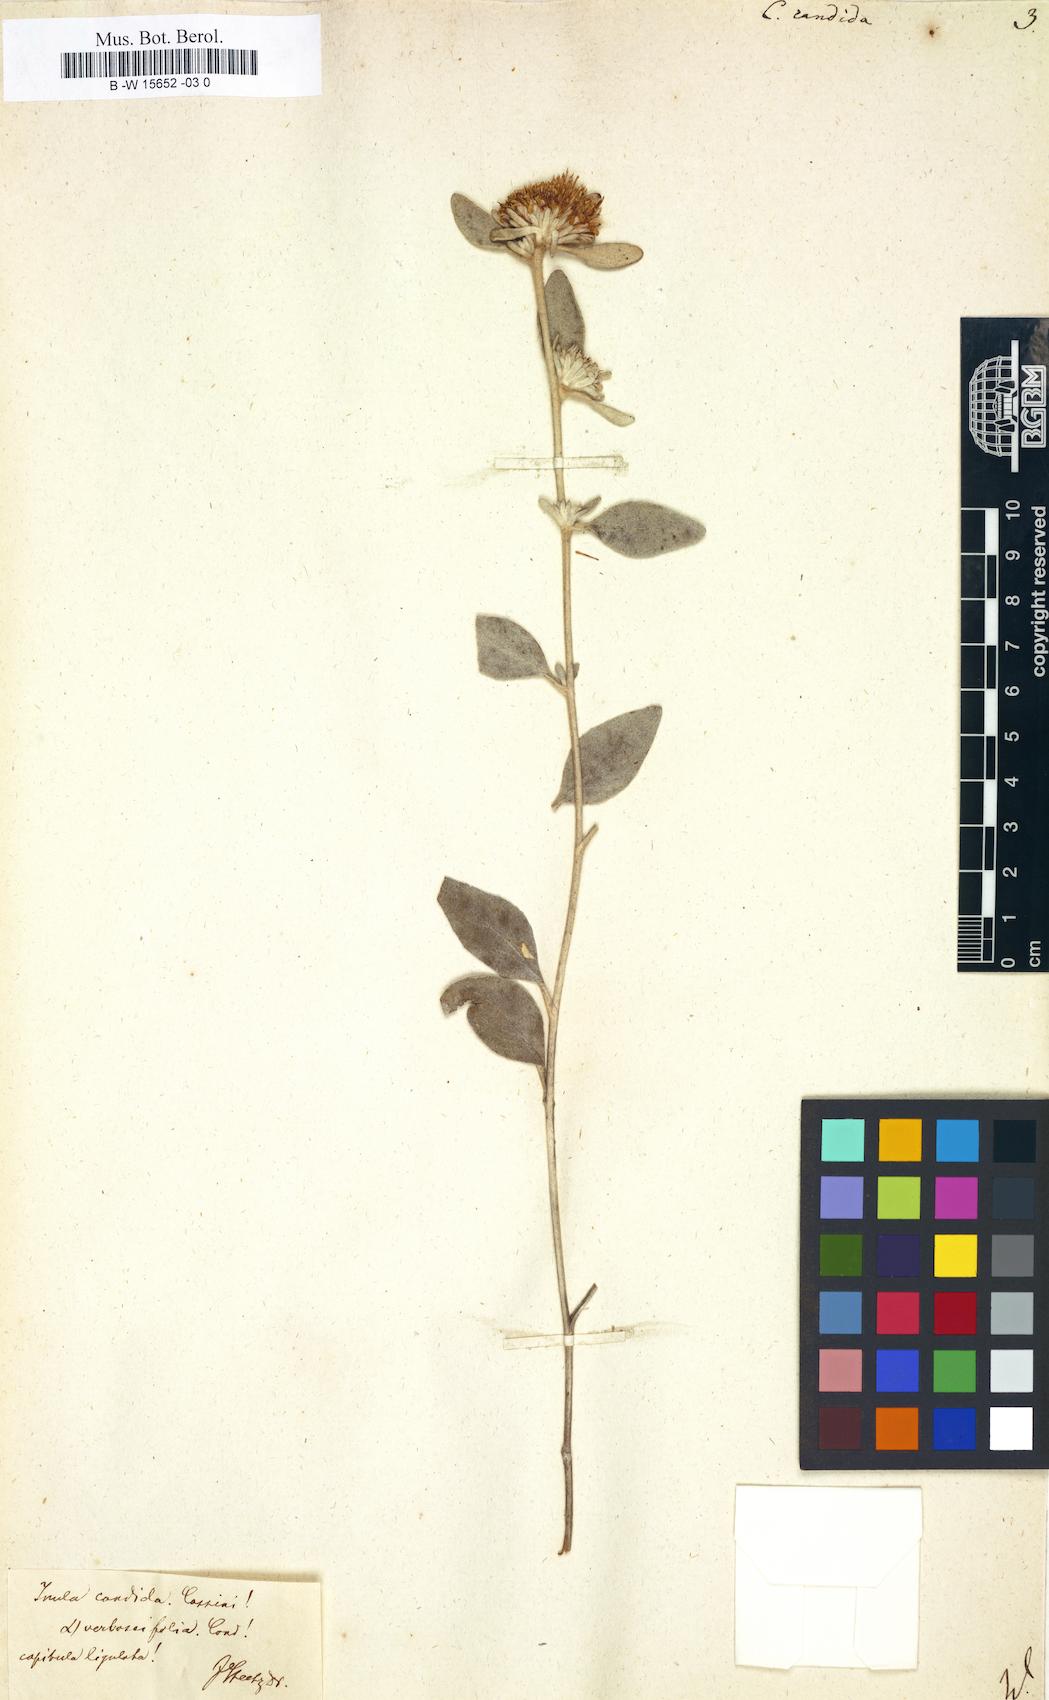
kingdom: Plantae
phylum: Tracheophyta
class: Magnoliopsida
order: Asterales
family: Asteraceae
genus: Inula
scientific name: Inula candida
